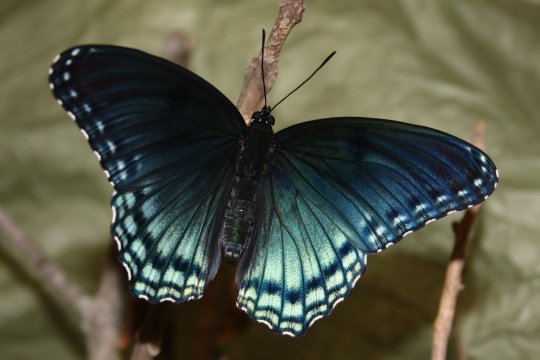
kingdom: Animalia
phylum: Arthropoda
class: Insecta
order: Lepidoptera
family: Nymphalidae
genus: Limenitis
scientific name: Limenitis arthemis
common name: Red-spotted Admiral
